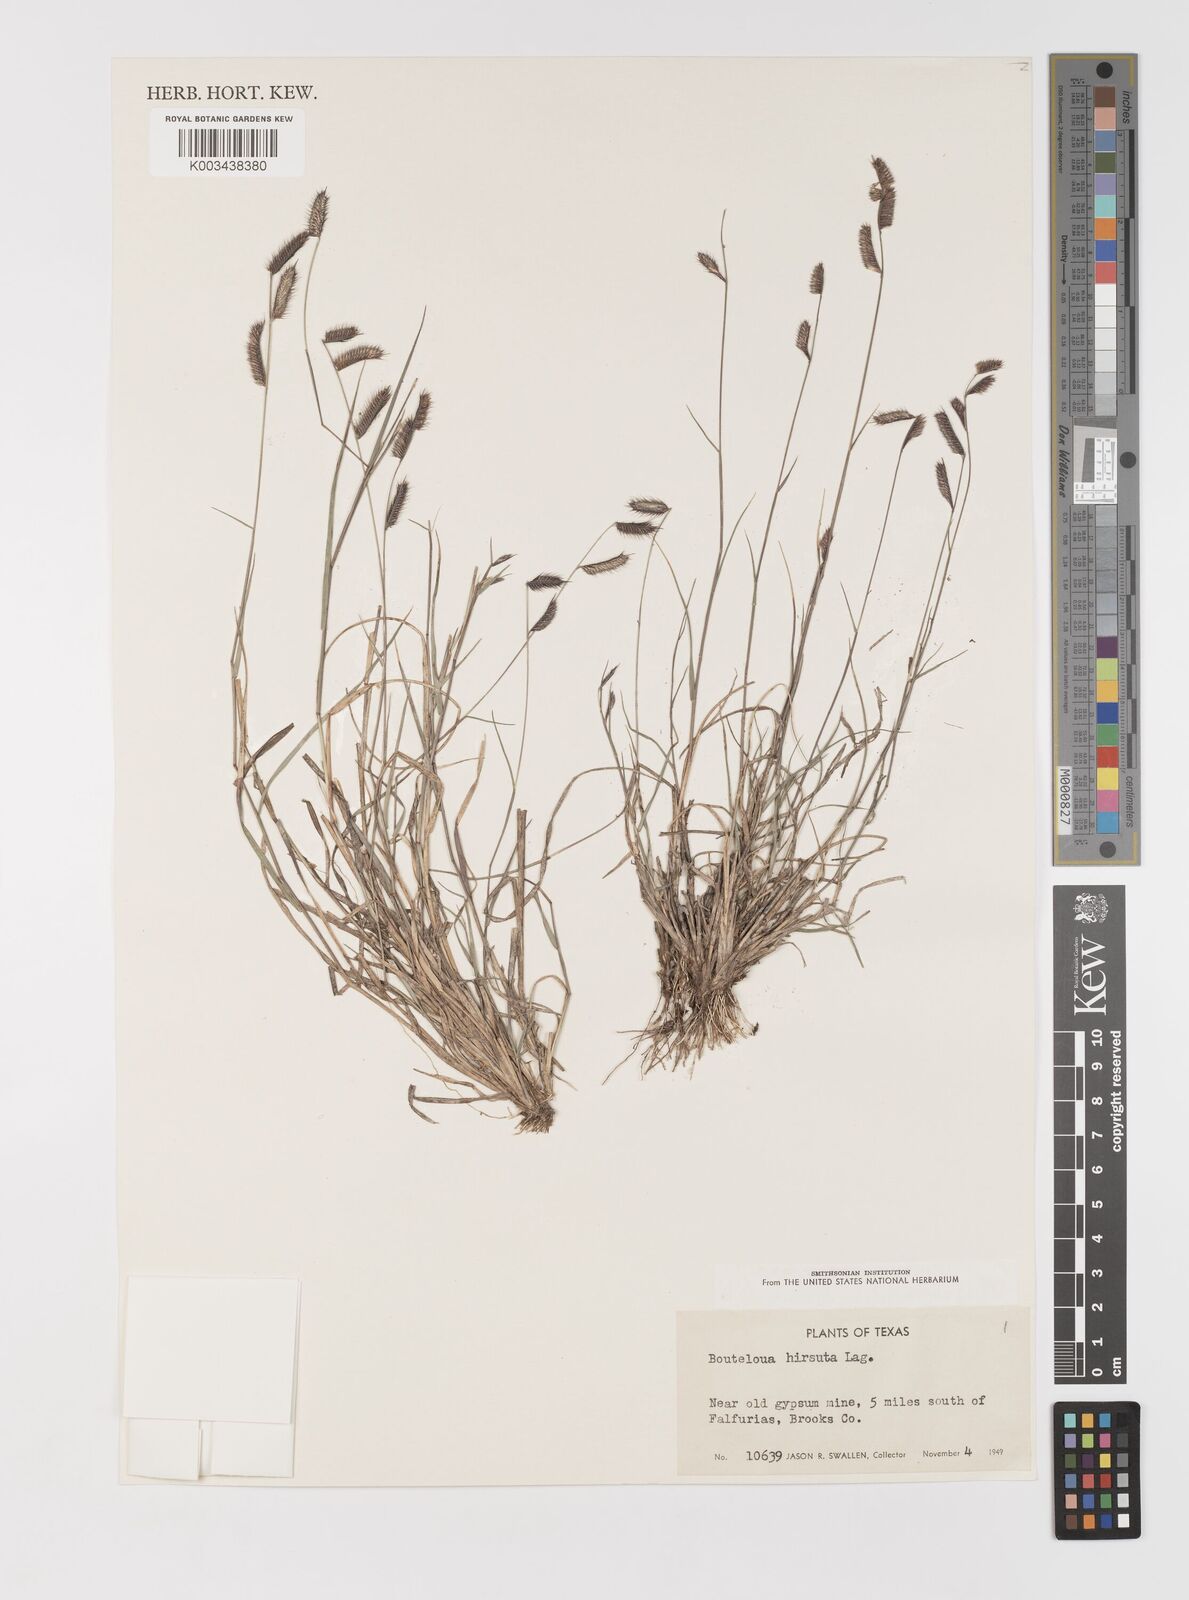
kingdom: Plantae
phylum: Tracheophyta
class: Liliopsida
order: Poales
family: Poaceae
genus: Bouteloua
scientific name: Bouteloua hirsuta
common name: Hairy grama
